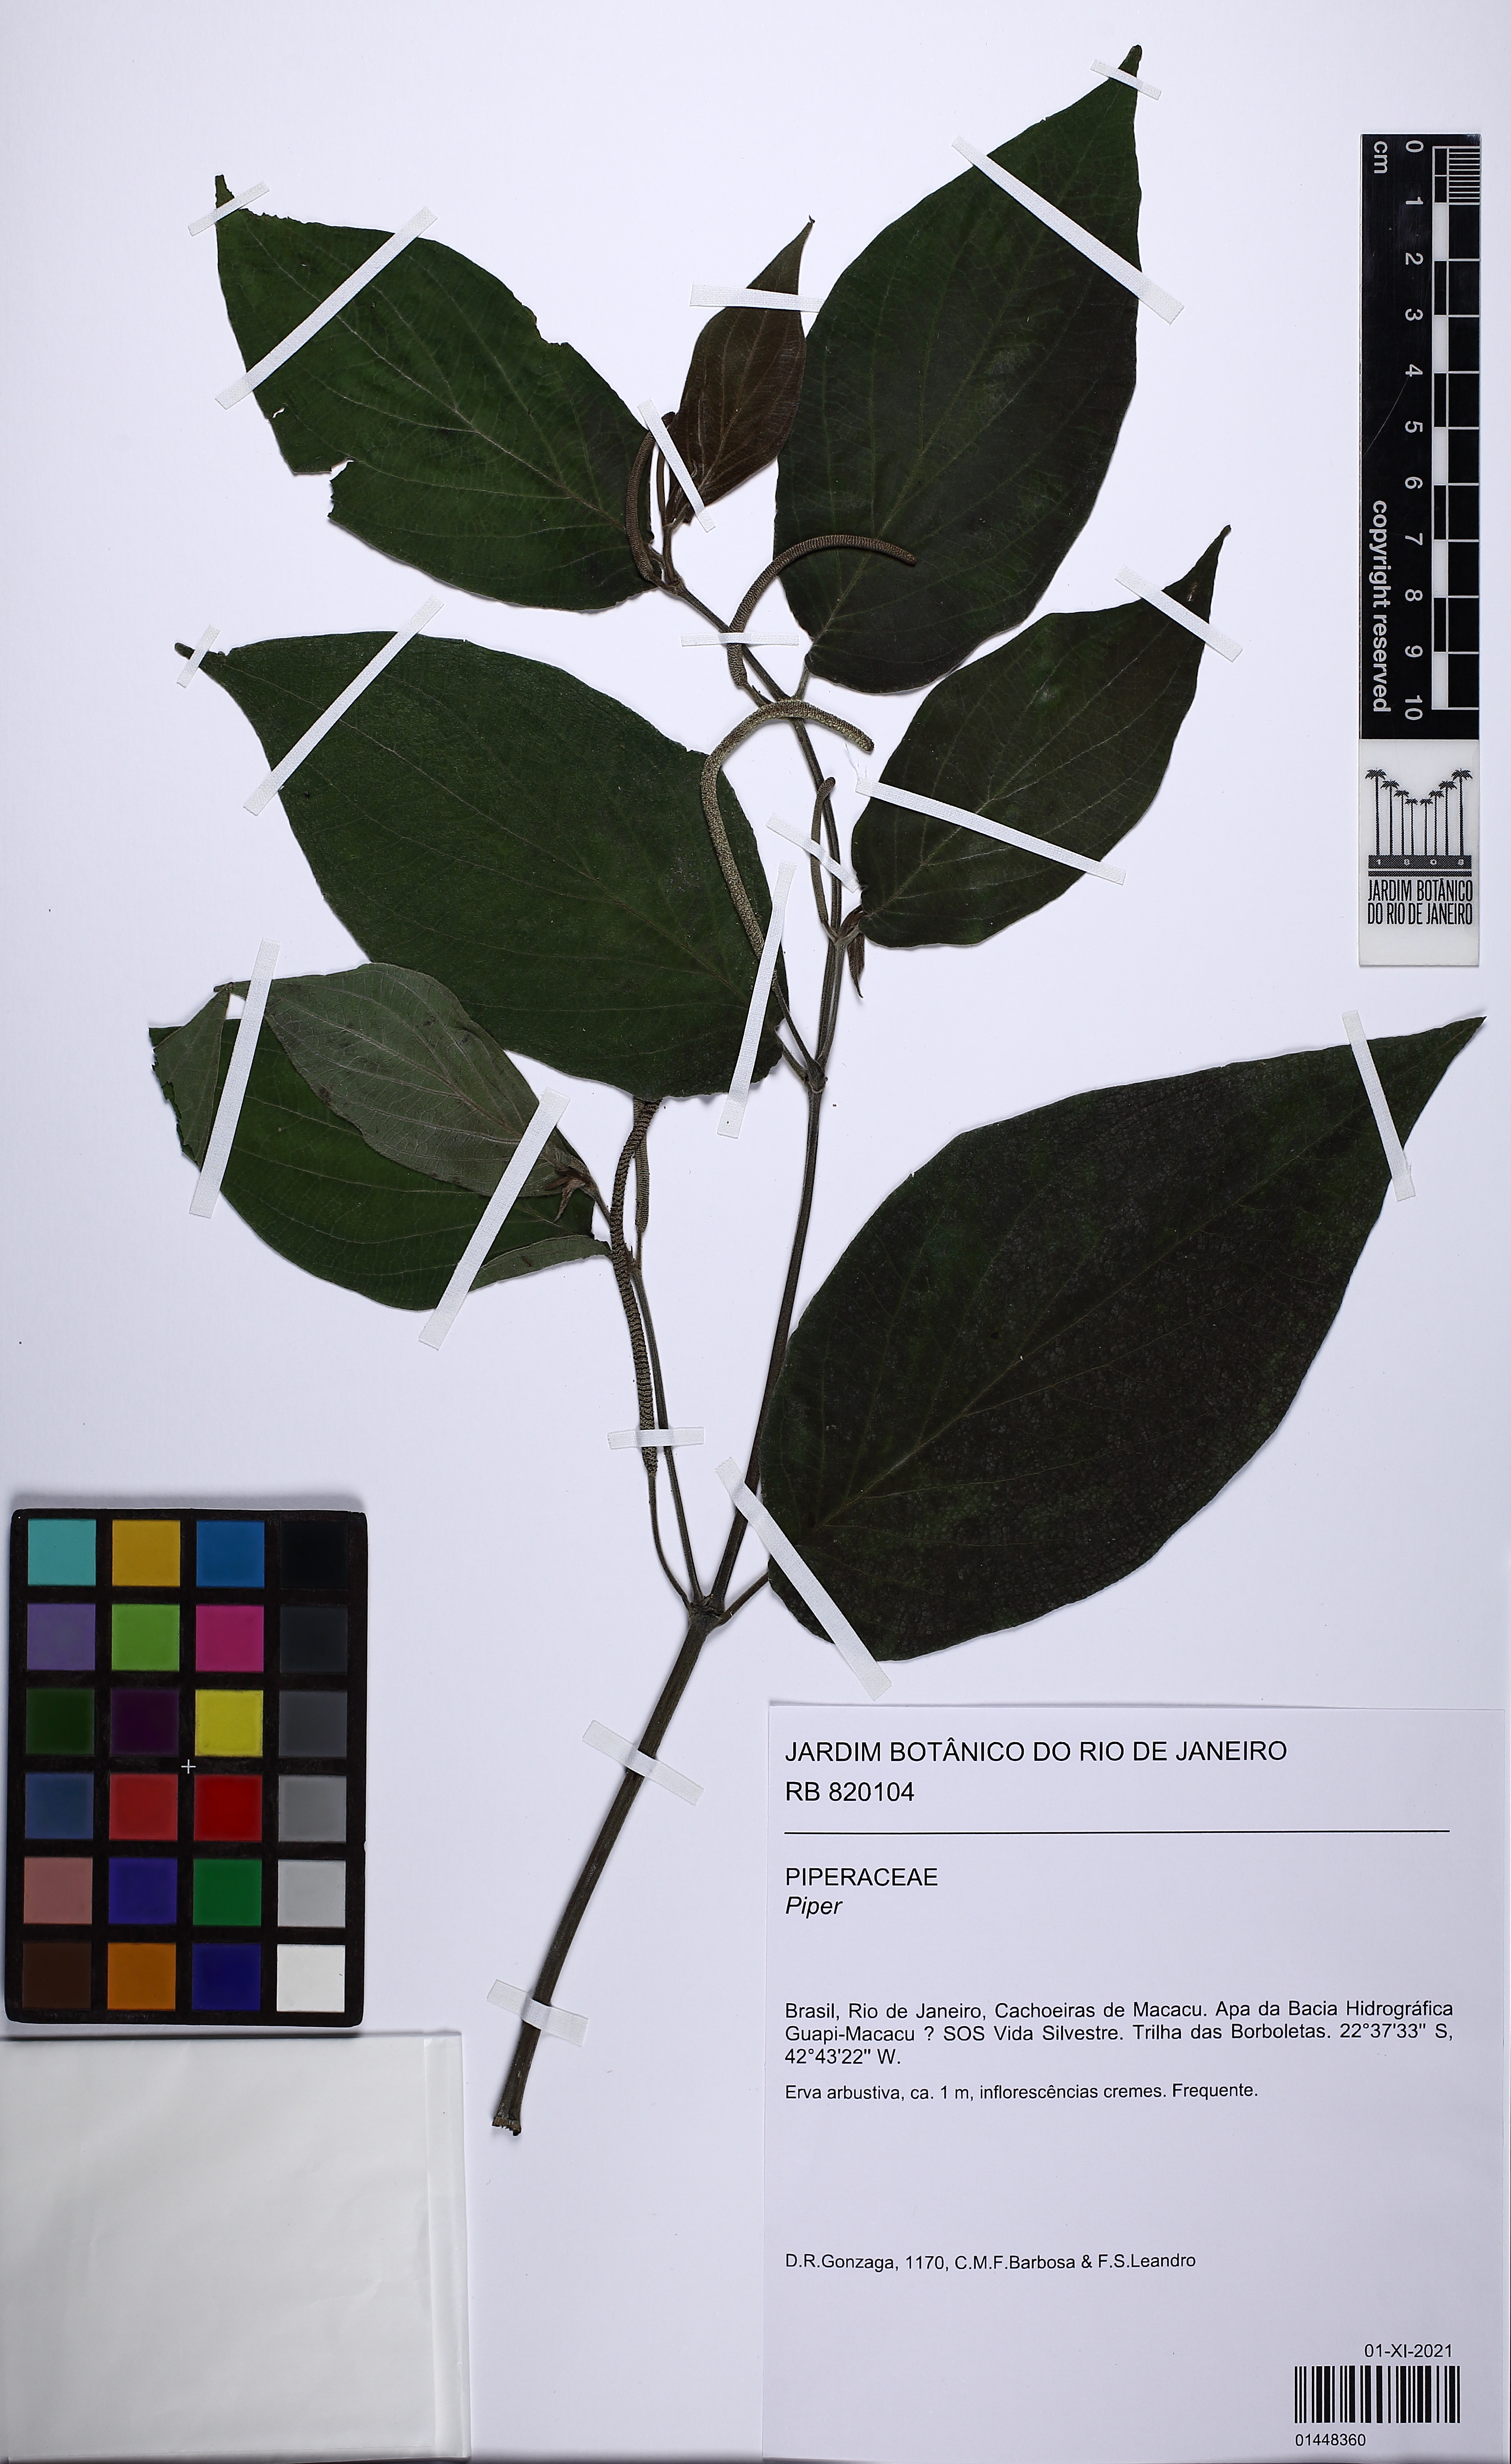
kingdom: Plantae
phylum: Tracheophyta
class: Magnoliopsida
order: Piperales
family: Piperaceae
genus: Piper
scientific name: Piper mollicomum
